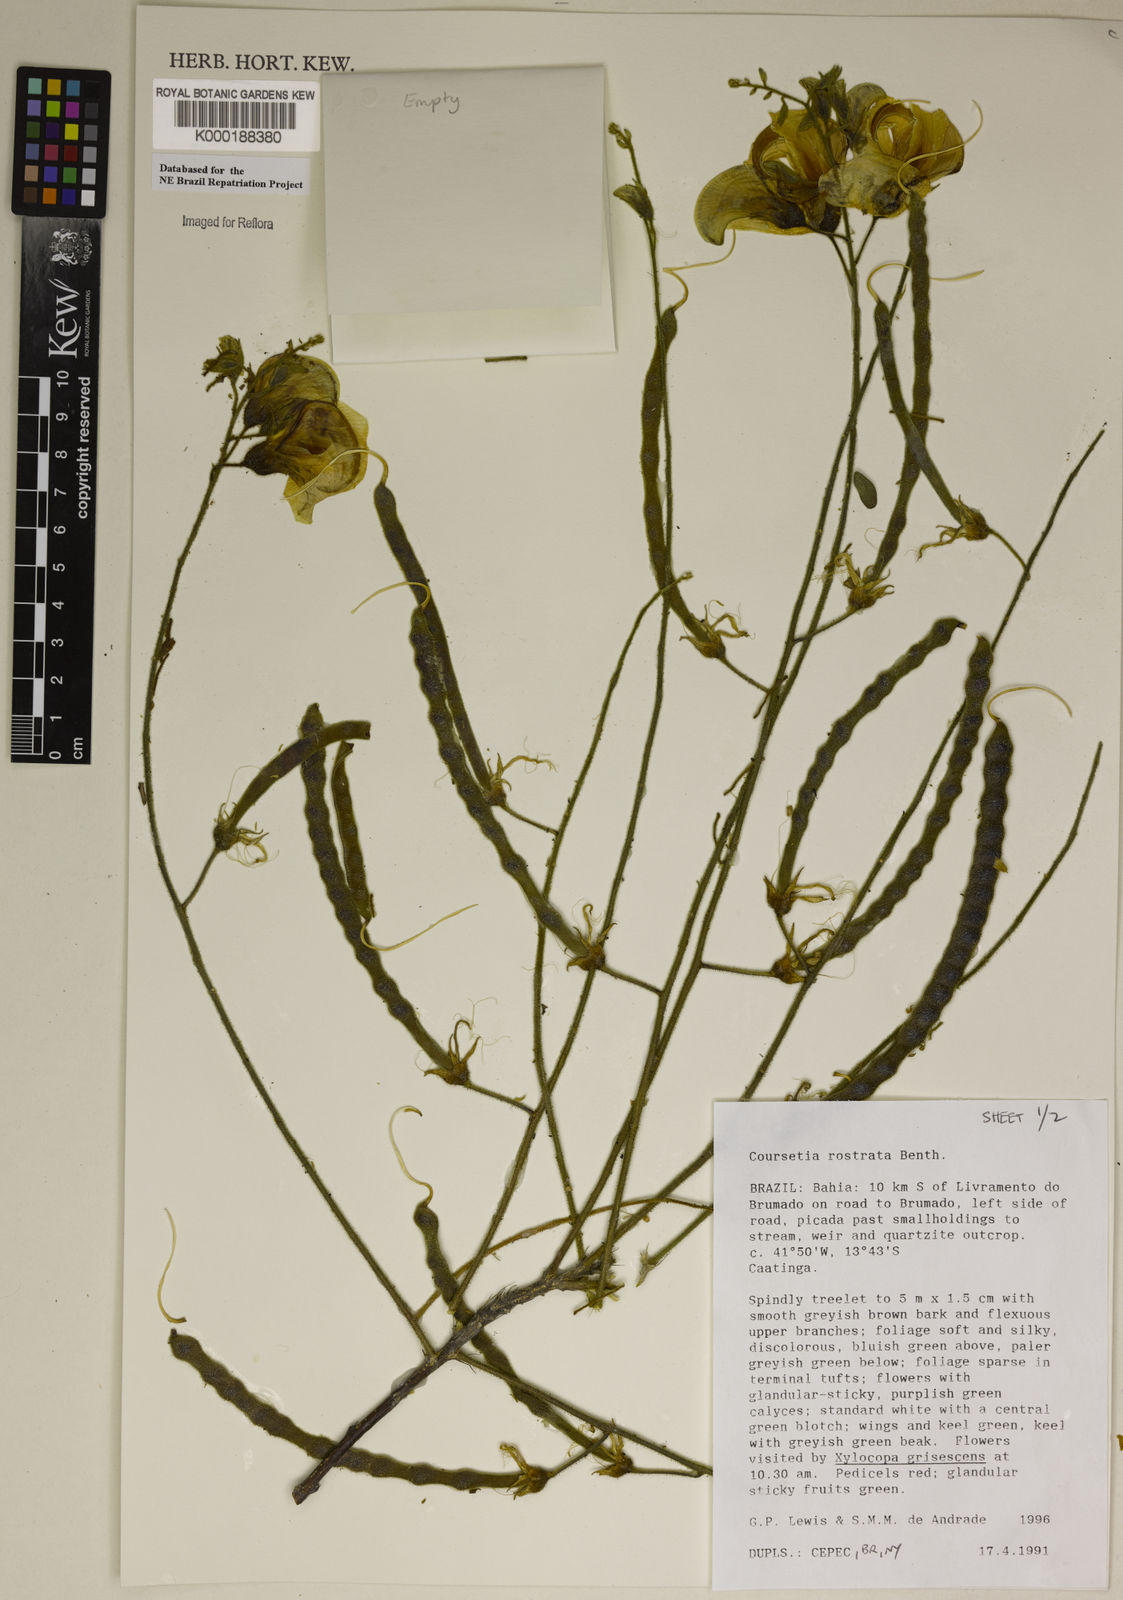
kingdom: Plantae
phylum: Tracheophyta
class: Magnoliopsida
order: Fabales
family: Fabaceae
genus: Coursetia
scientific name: Coursetia rostrata
